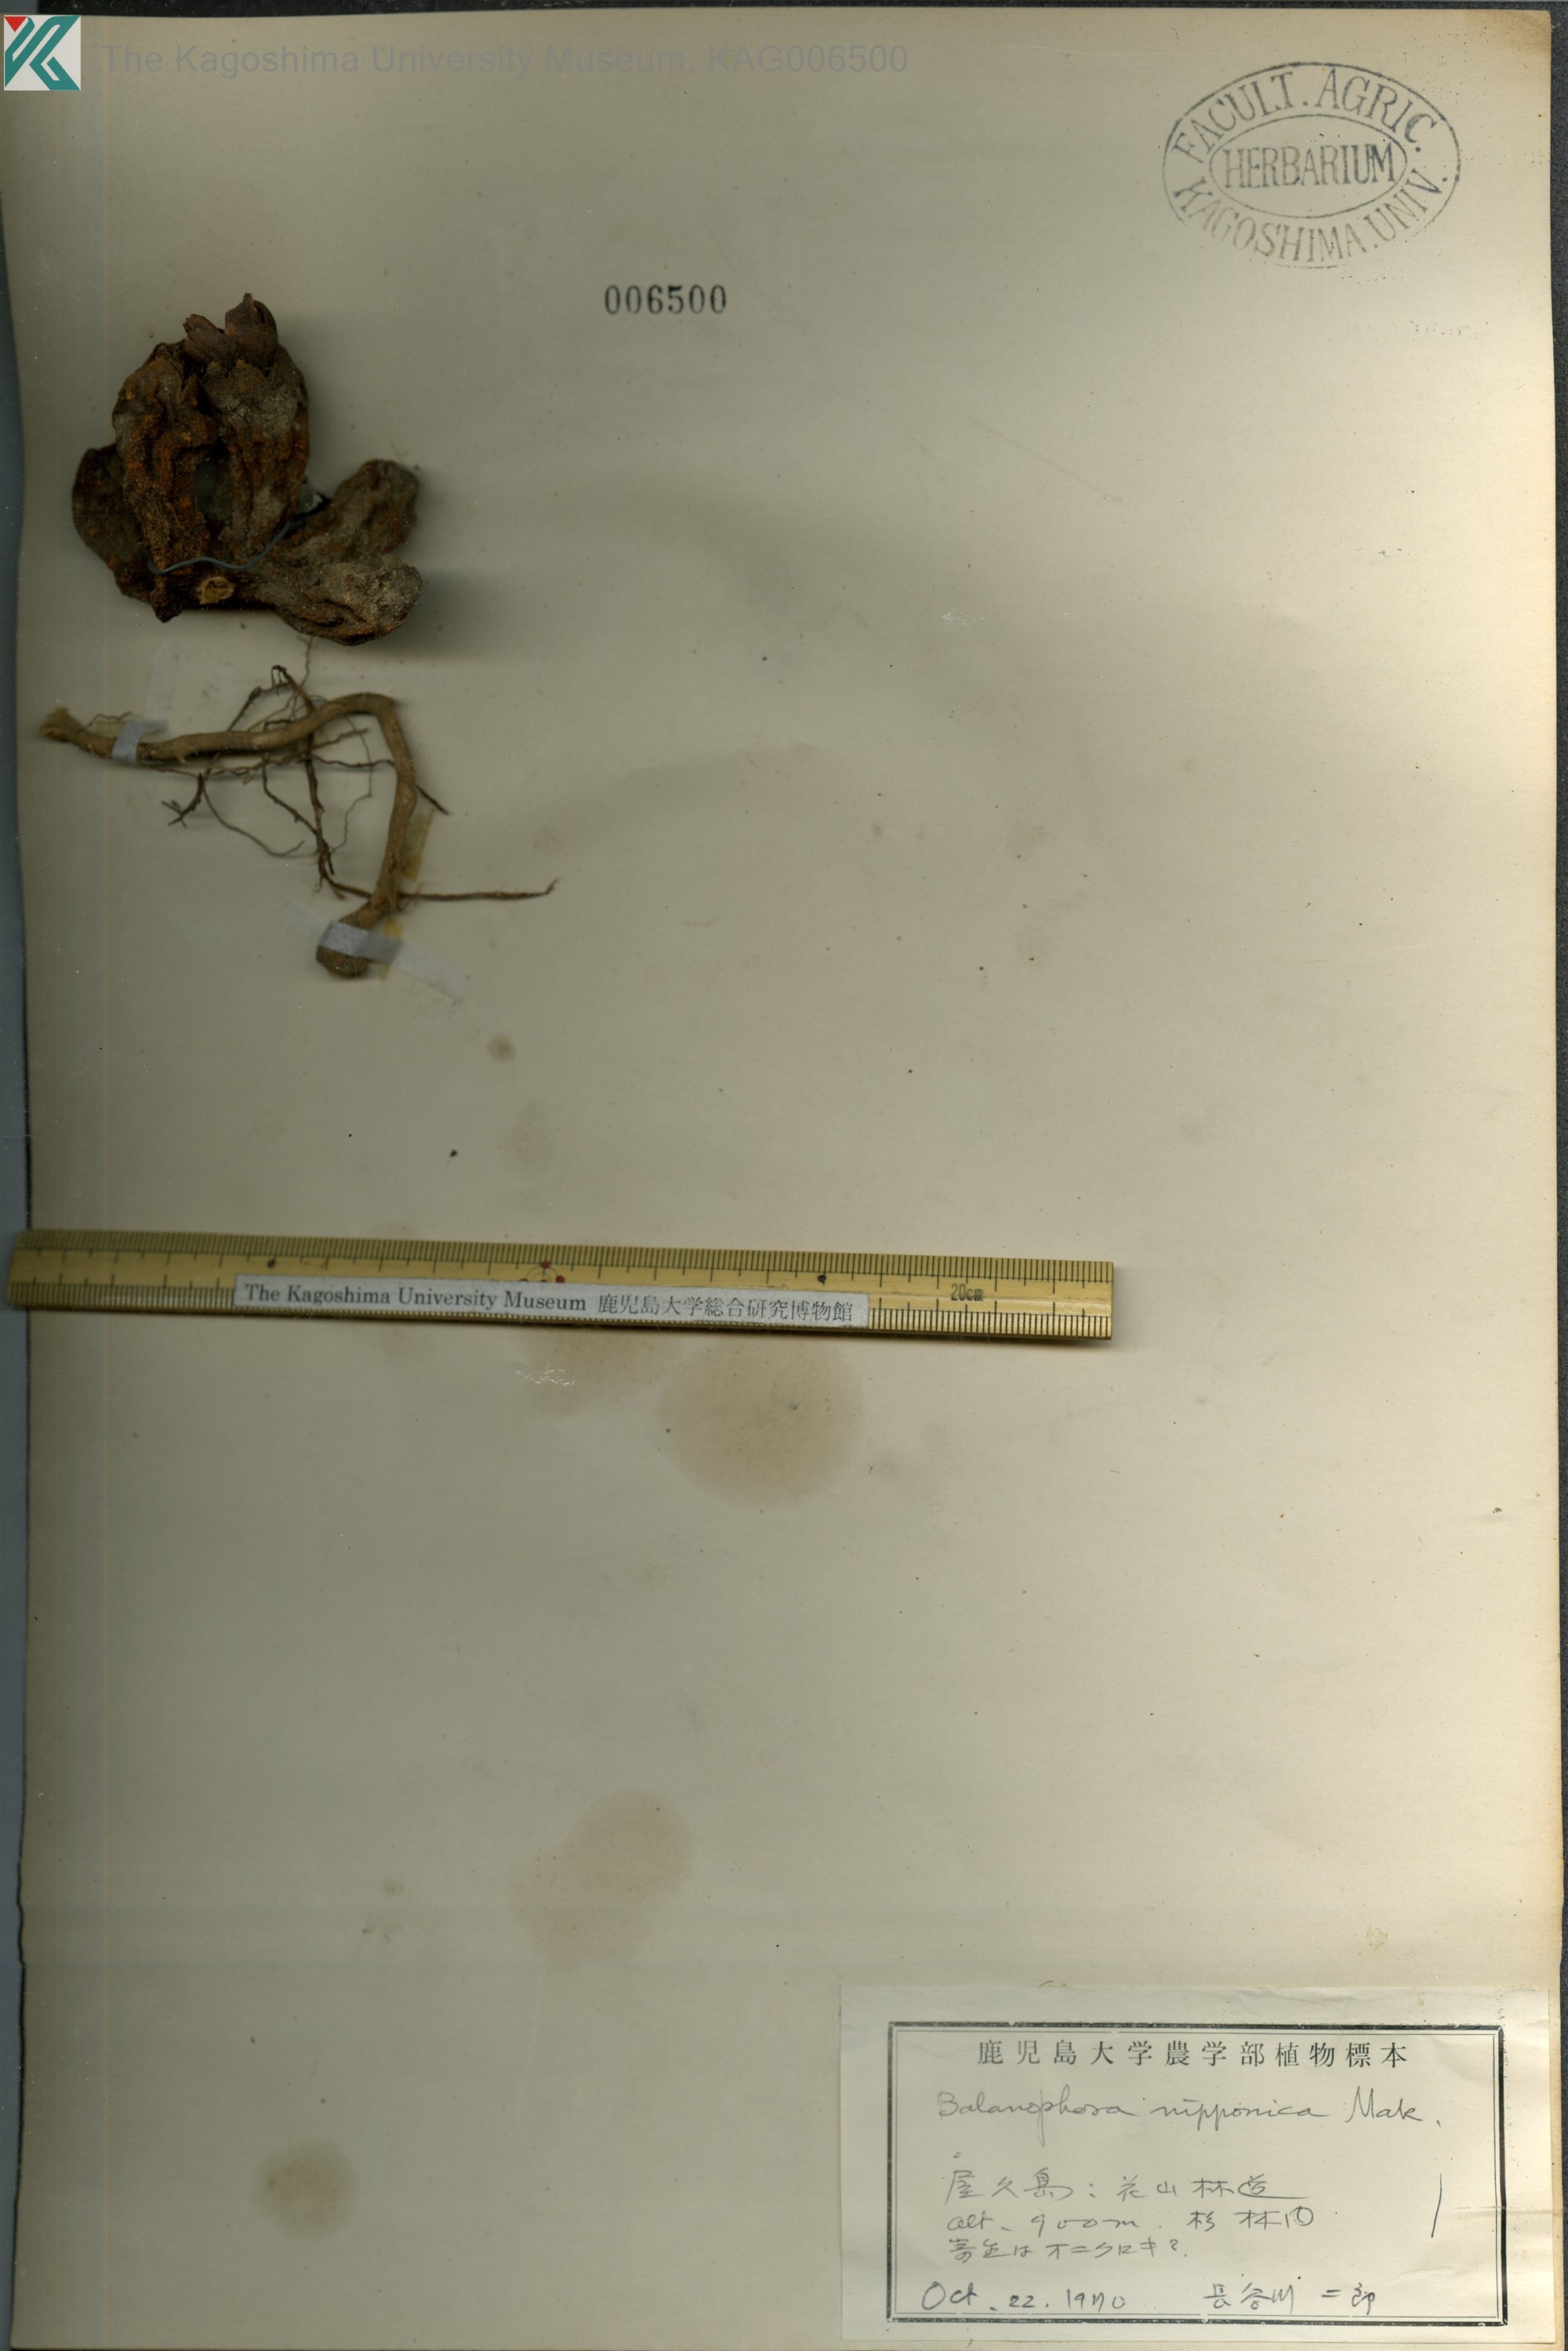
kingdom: Plantae
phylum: Tracheophyta
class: Magnoliopsida
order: Santalales
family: Balanophoraceae
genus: Balanophora
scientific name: Balanophora yakushimensis
